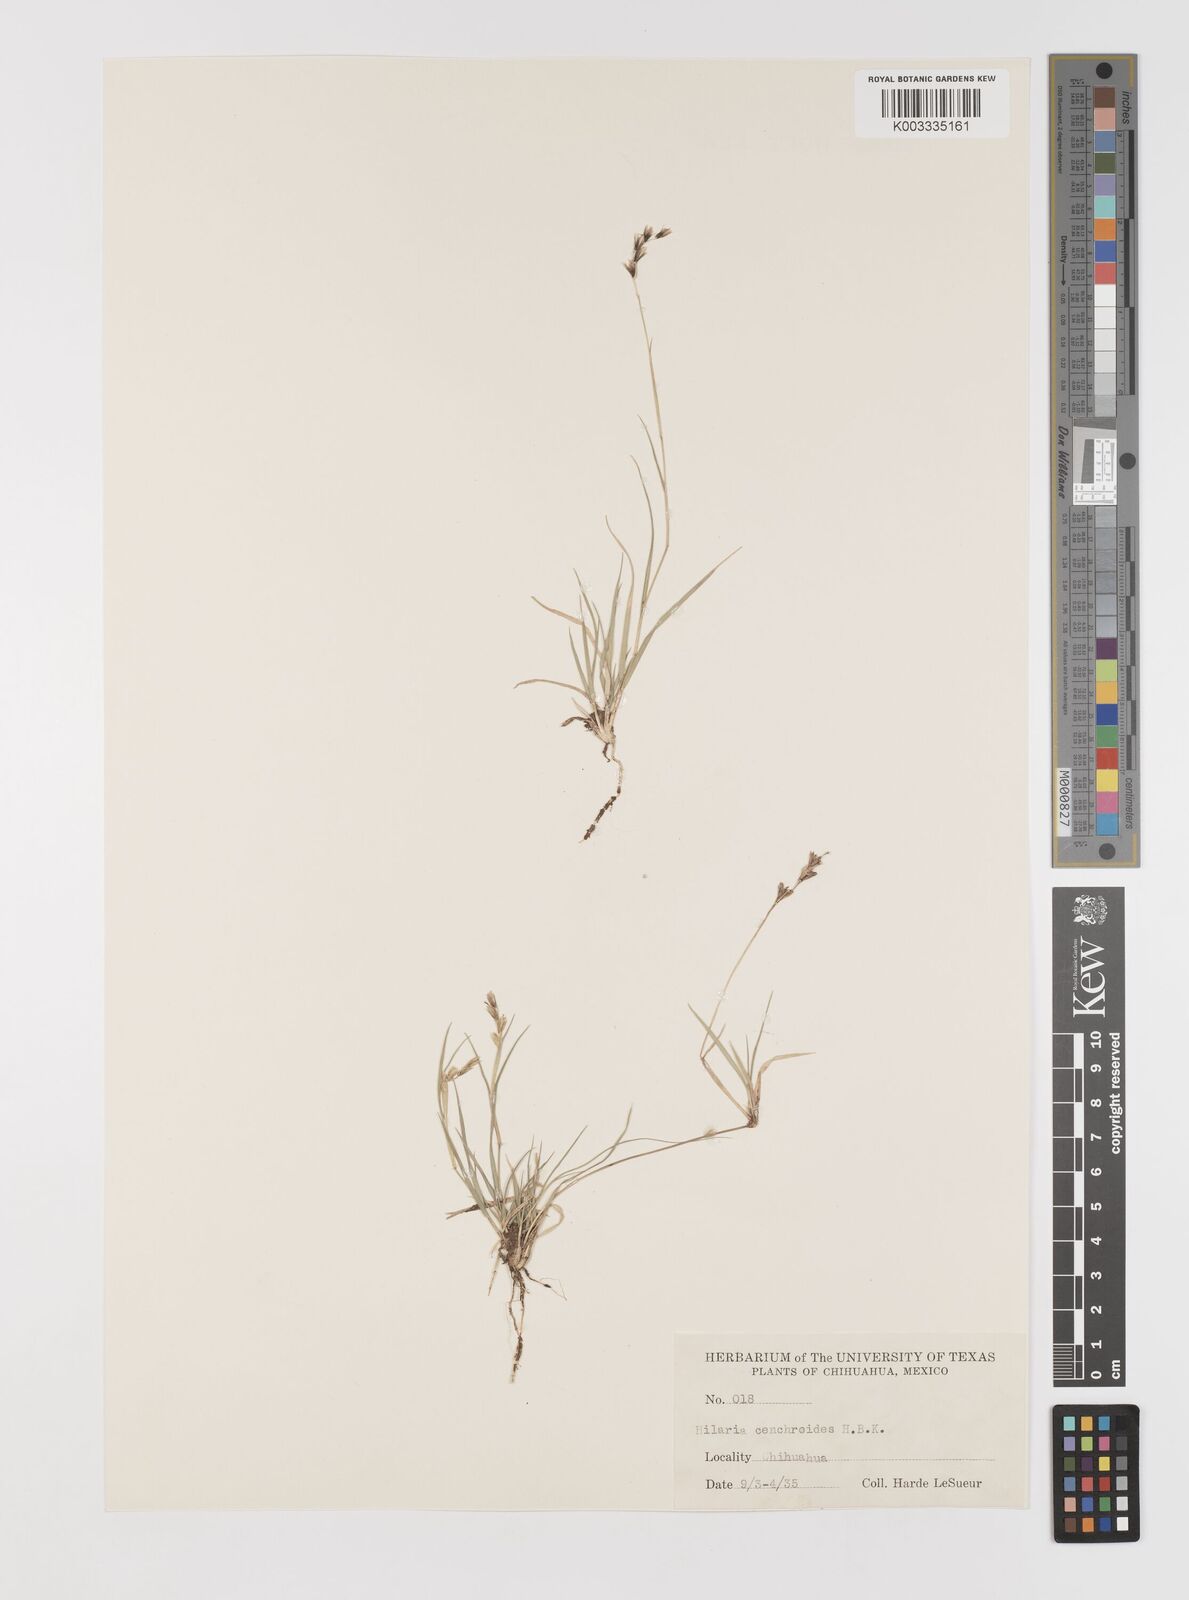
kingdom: Plantae
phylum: Tracheophyta
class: Liliopsida
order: Poales
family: Poaceae
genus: Hilaria
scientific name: Hilaria cenchroides
